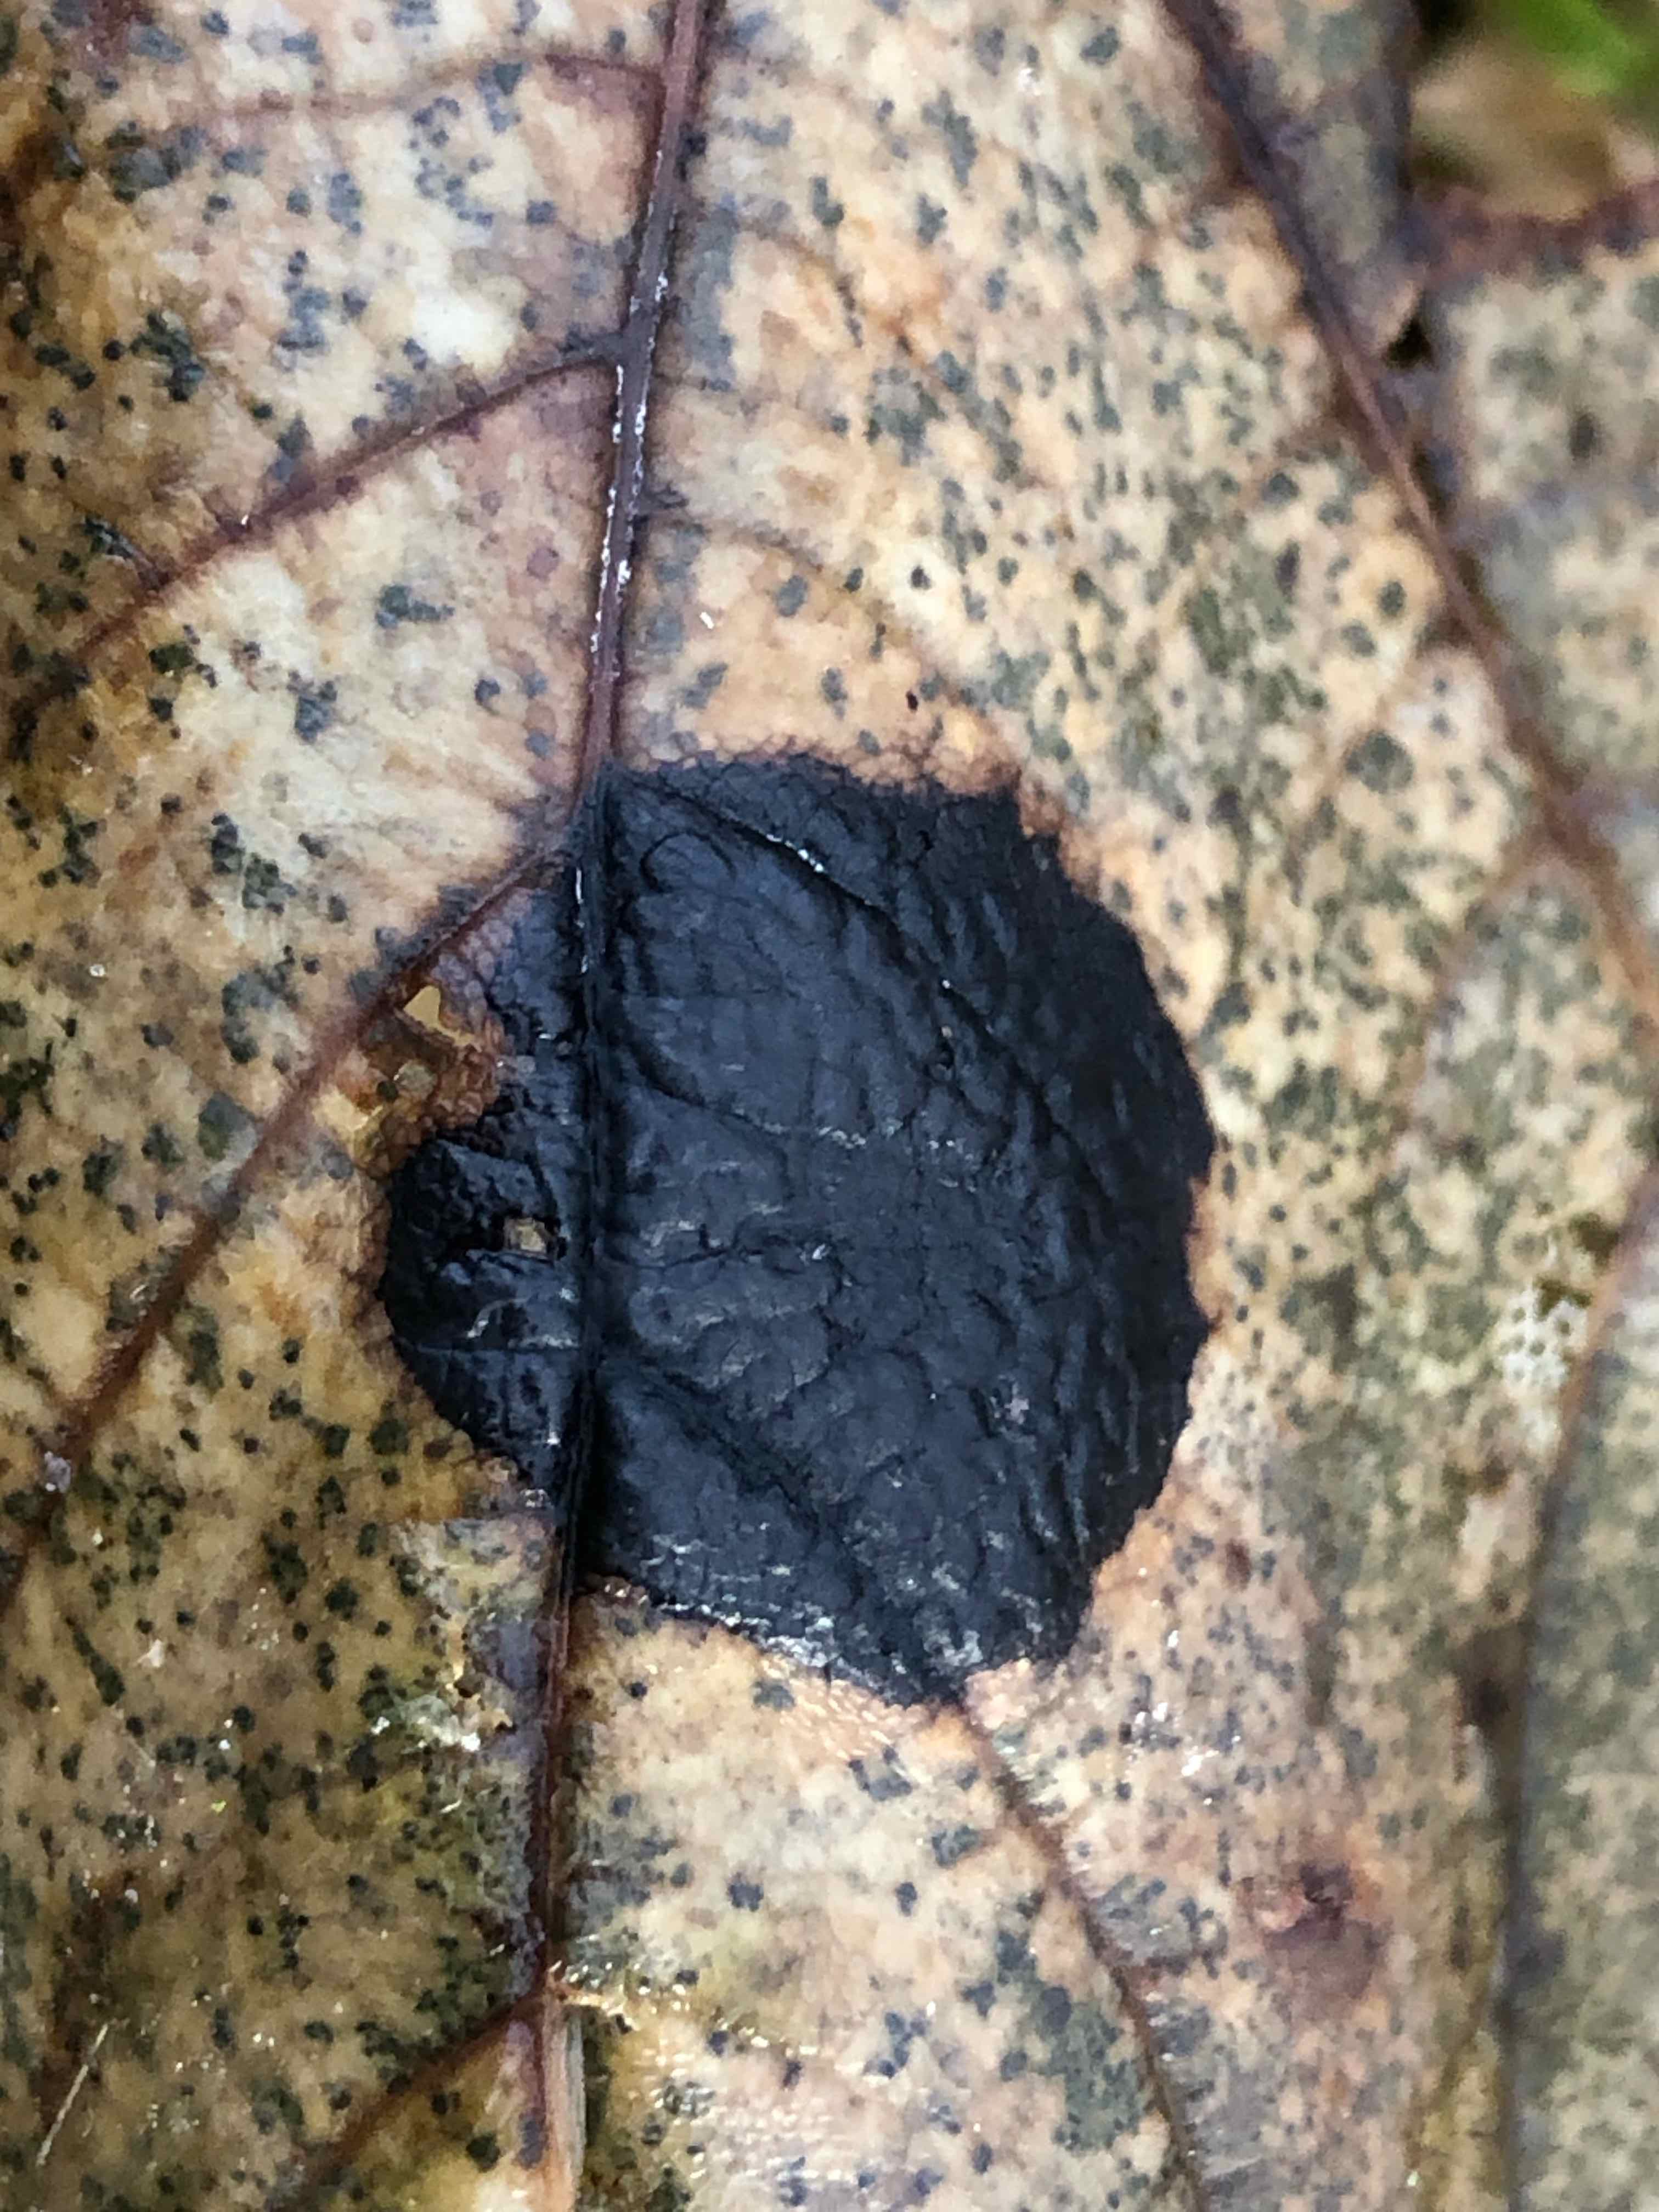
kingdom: Fungi
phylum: Ascomycota
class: Leotiomycetes
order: Rhytismatales
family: Rhytismataceae
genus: Rhytisma
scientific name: Rhytisma acerinum
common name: ahorn-rynkeplet
